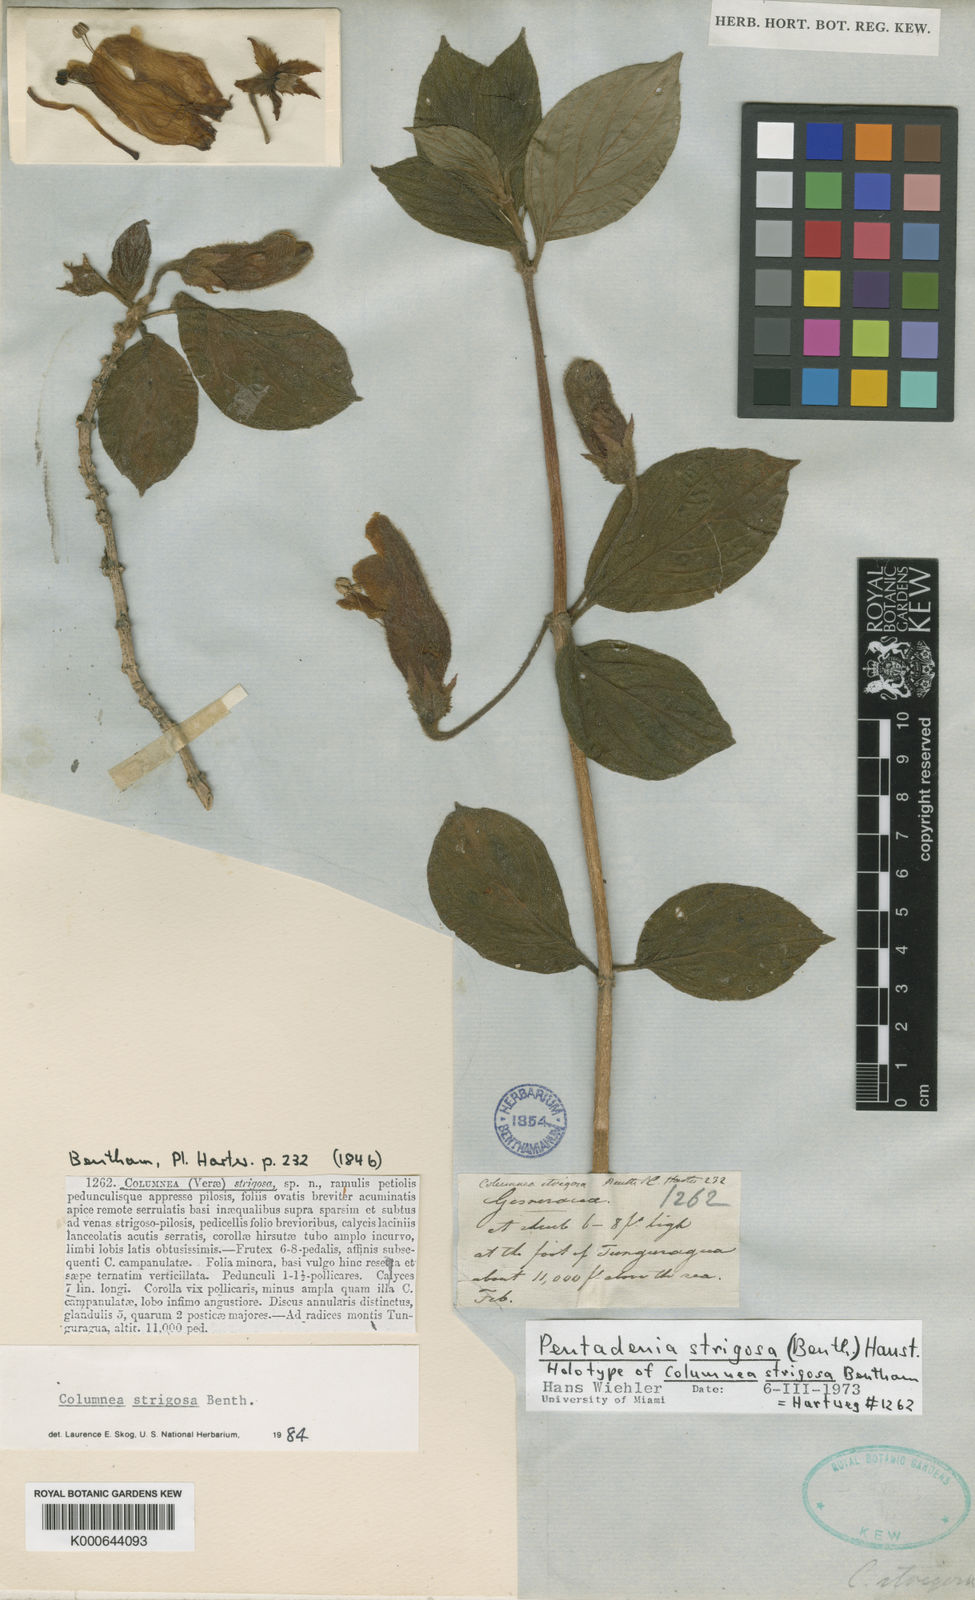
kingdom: Plantae
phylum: Tracheophyta
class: Magnoliopsida
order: Lamiales
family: Gesneriaceae
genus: Columnea
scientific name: Columnea strigosa
